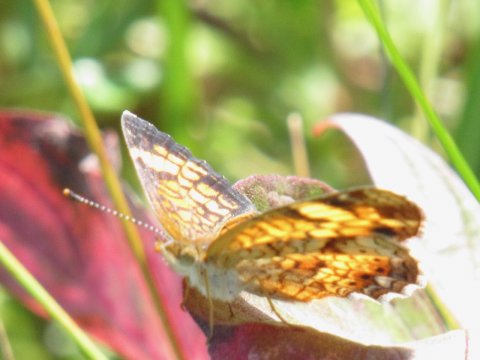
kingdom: Animalia
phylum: Arthropoda
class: Insecta
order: Lepidoptera
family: Nymphalidae
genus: Phyciodes
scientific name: Phyciodes
